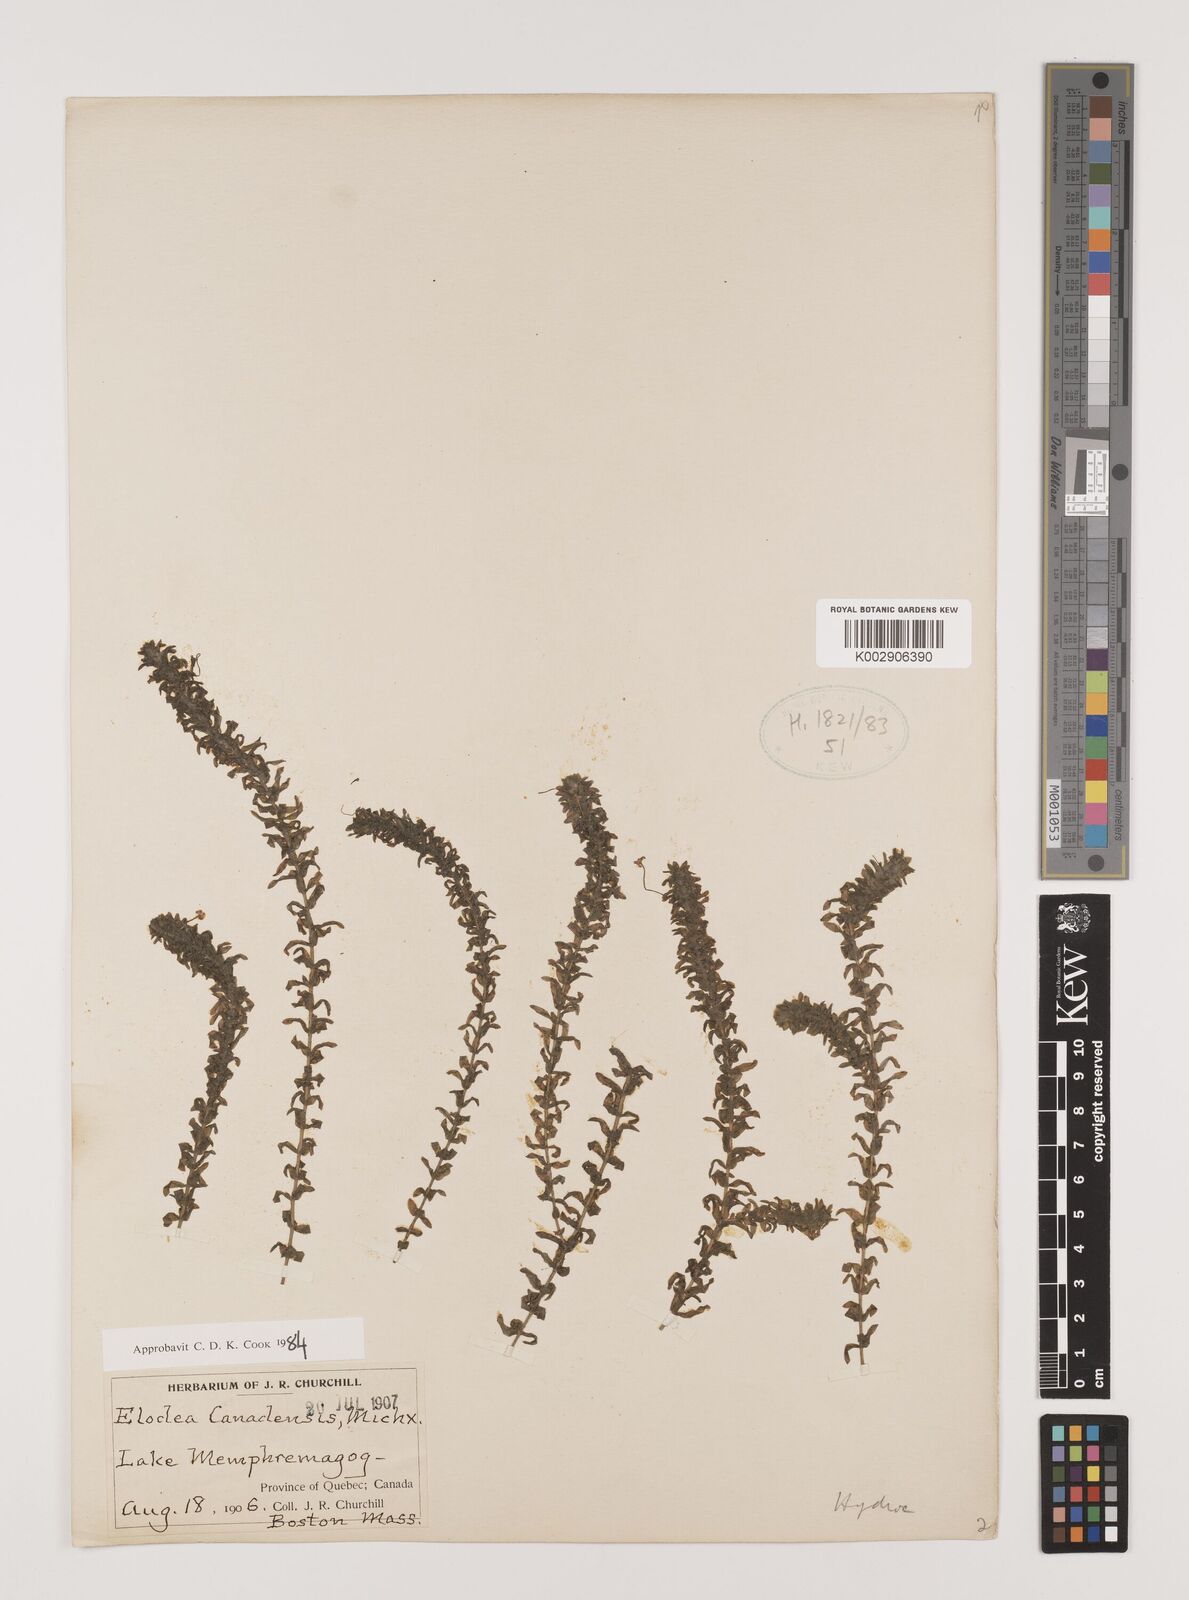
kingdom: Plantae
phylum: Tracheophyta
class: Liliopsida
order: Alismatales
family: Hydrocharitaceae
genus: Elodea
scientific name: Elodea canadensis
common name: Canadian waterweed
